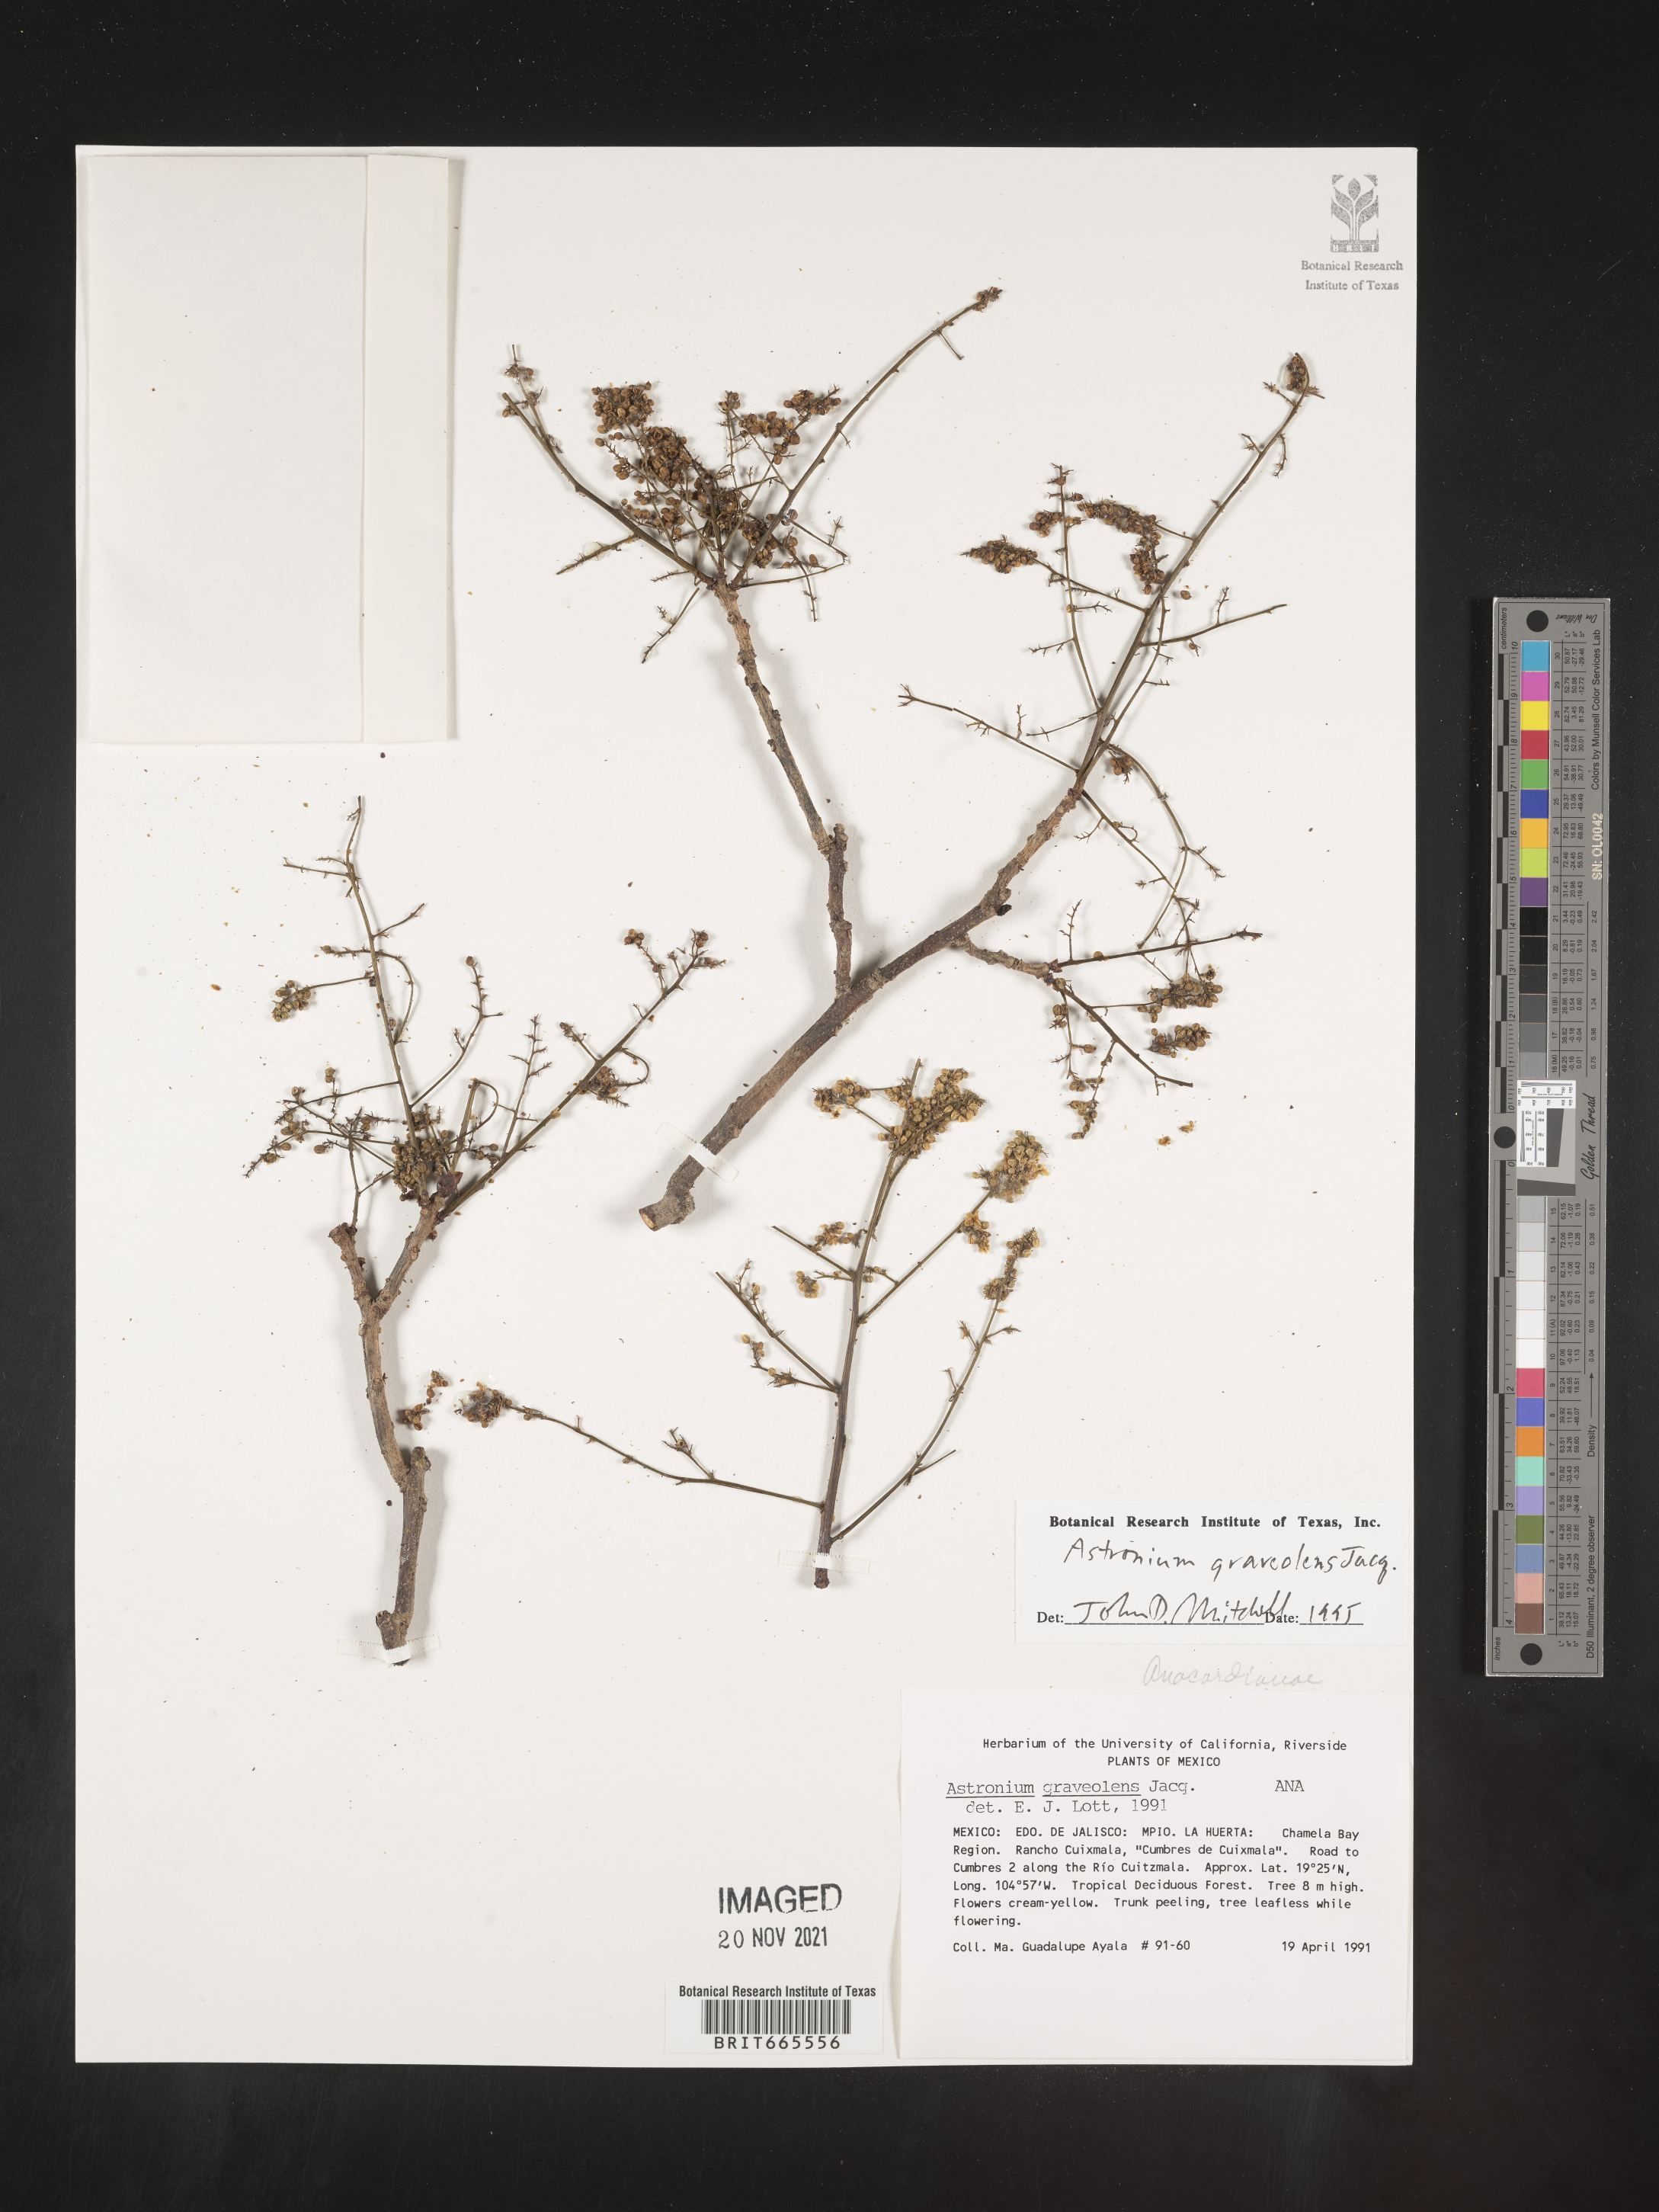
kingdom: Plantae
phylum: Tracheophyta
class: Magnoliopsida
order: Sapindales
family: Anacardiaceae
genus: Astronium
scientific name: Astronium
